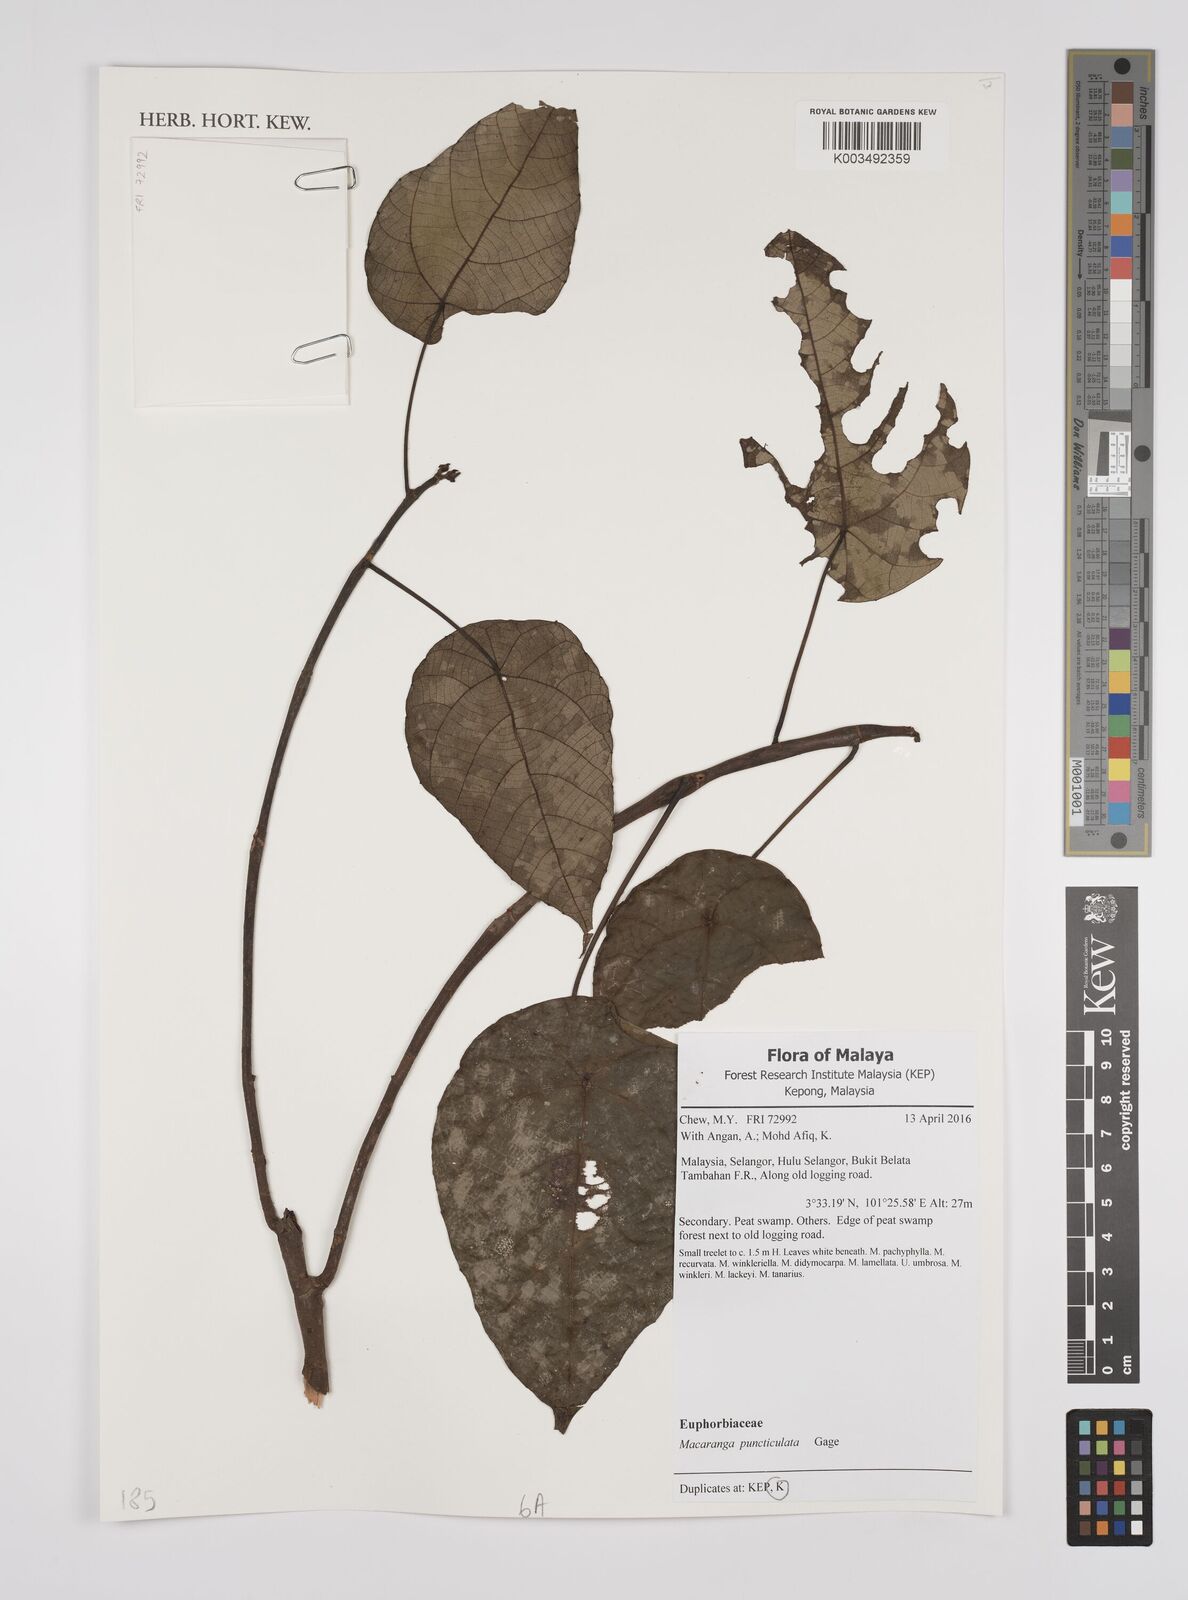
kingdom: Plantae
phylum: Tracheophyta
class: Magnoliopsida
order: Malpighiales
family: Euphorbiaceae
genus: Macaranga
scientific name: Macaranga puncticulata
